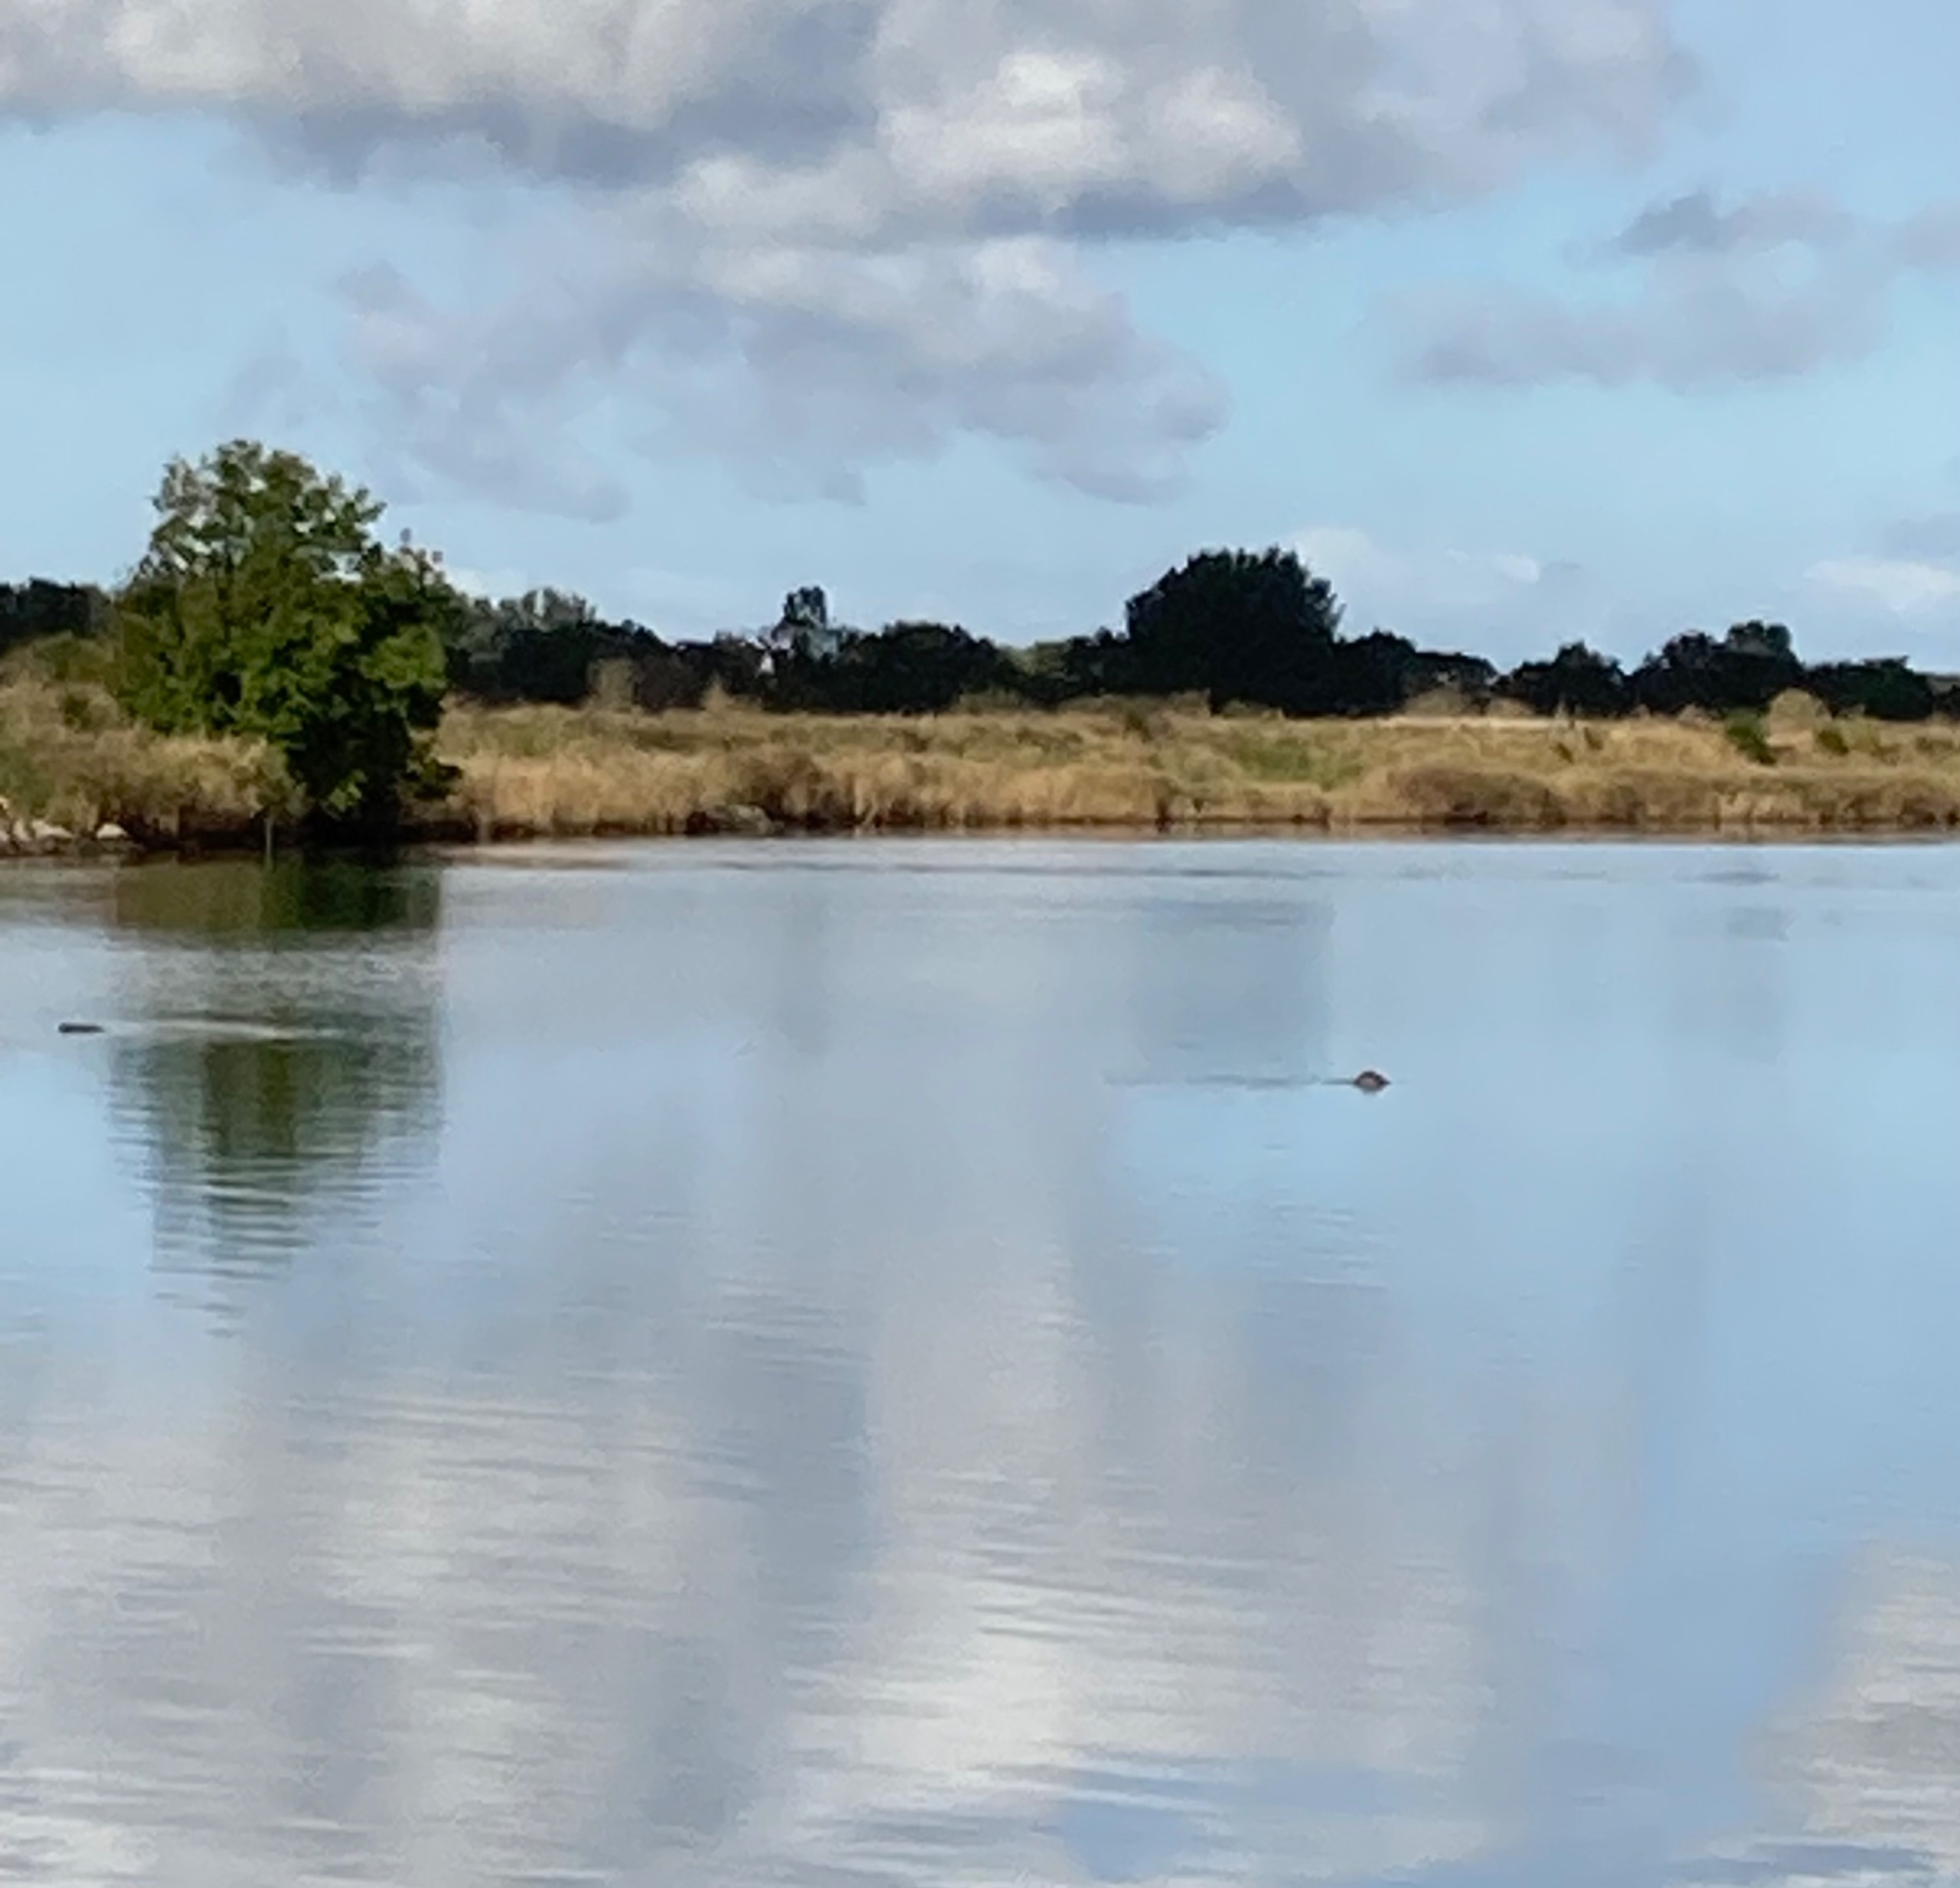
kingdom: Animalia
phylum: Chordata
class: Mammalia
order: Carnivora
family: Phocidae
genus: Phoca
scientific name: Phoca vitulina
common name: Spættet sæl
